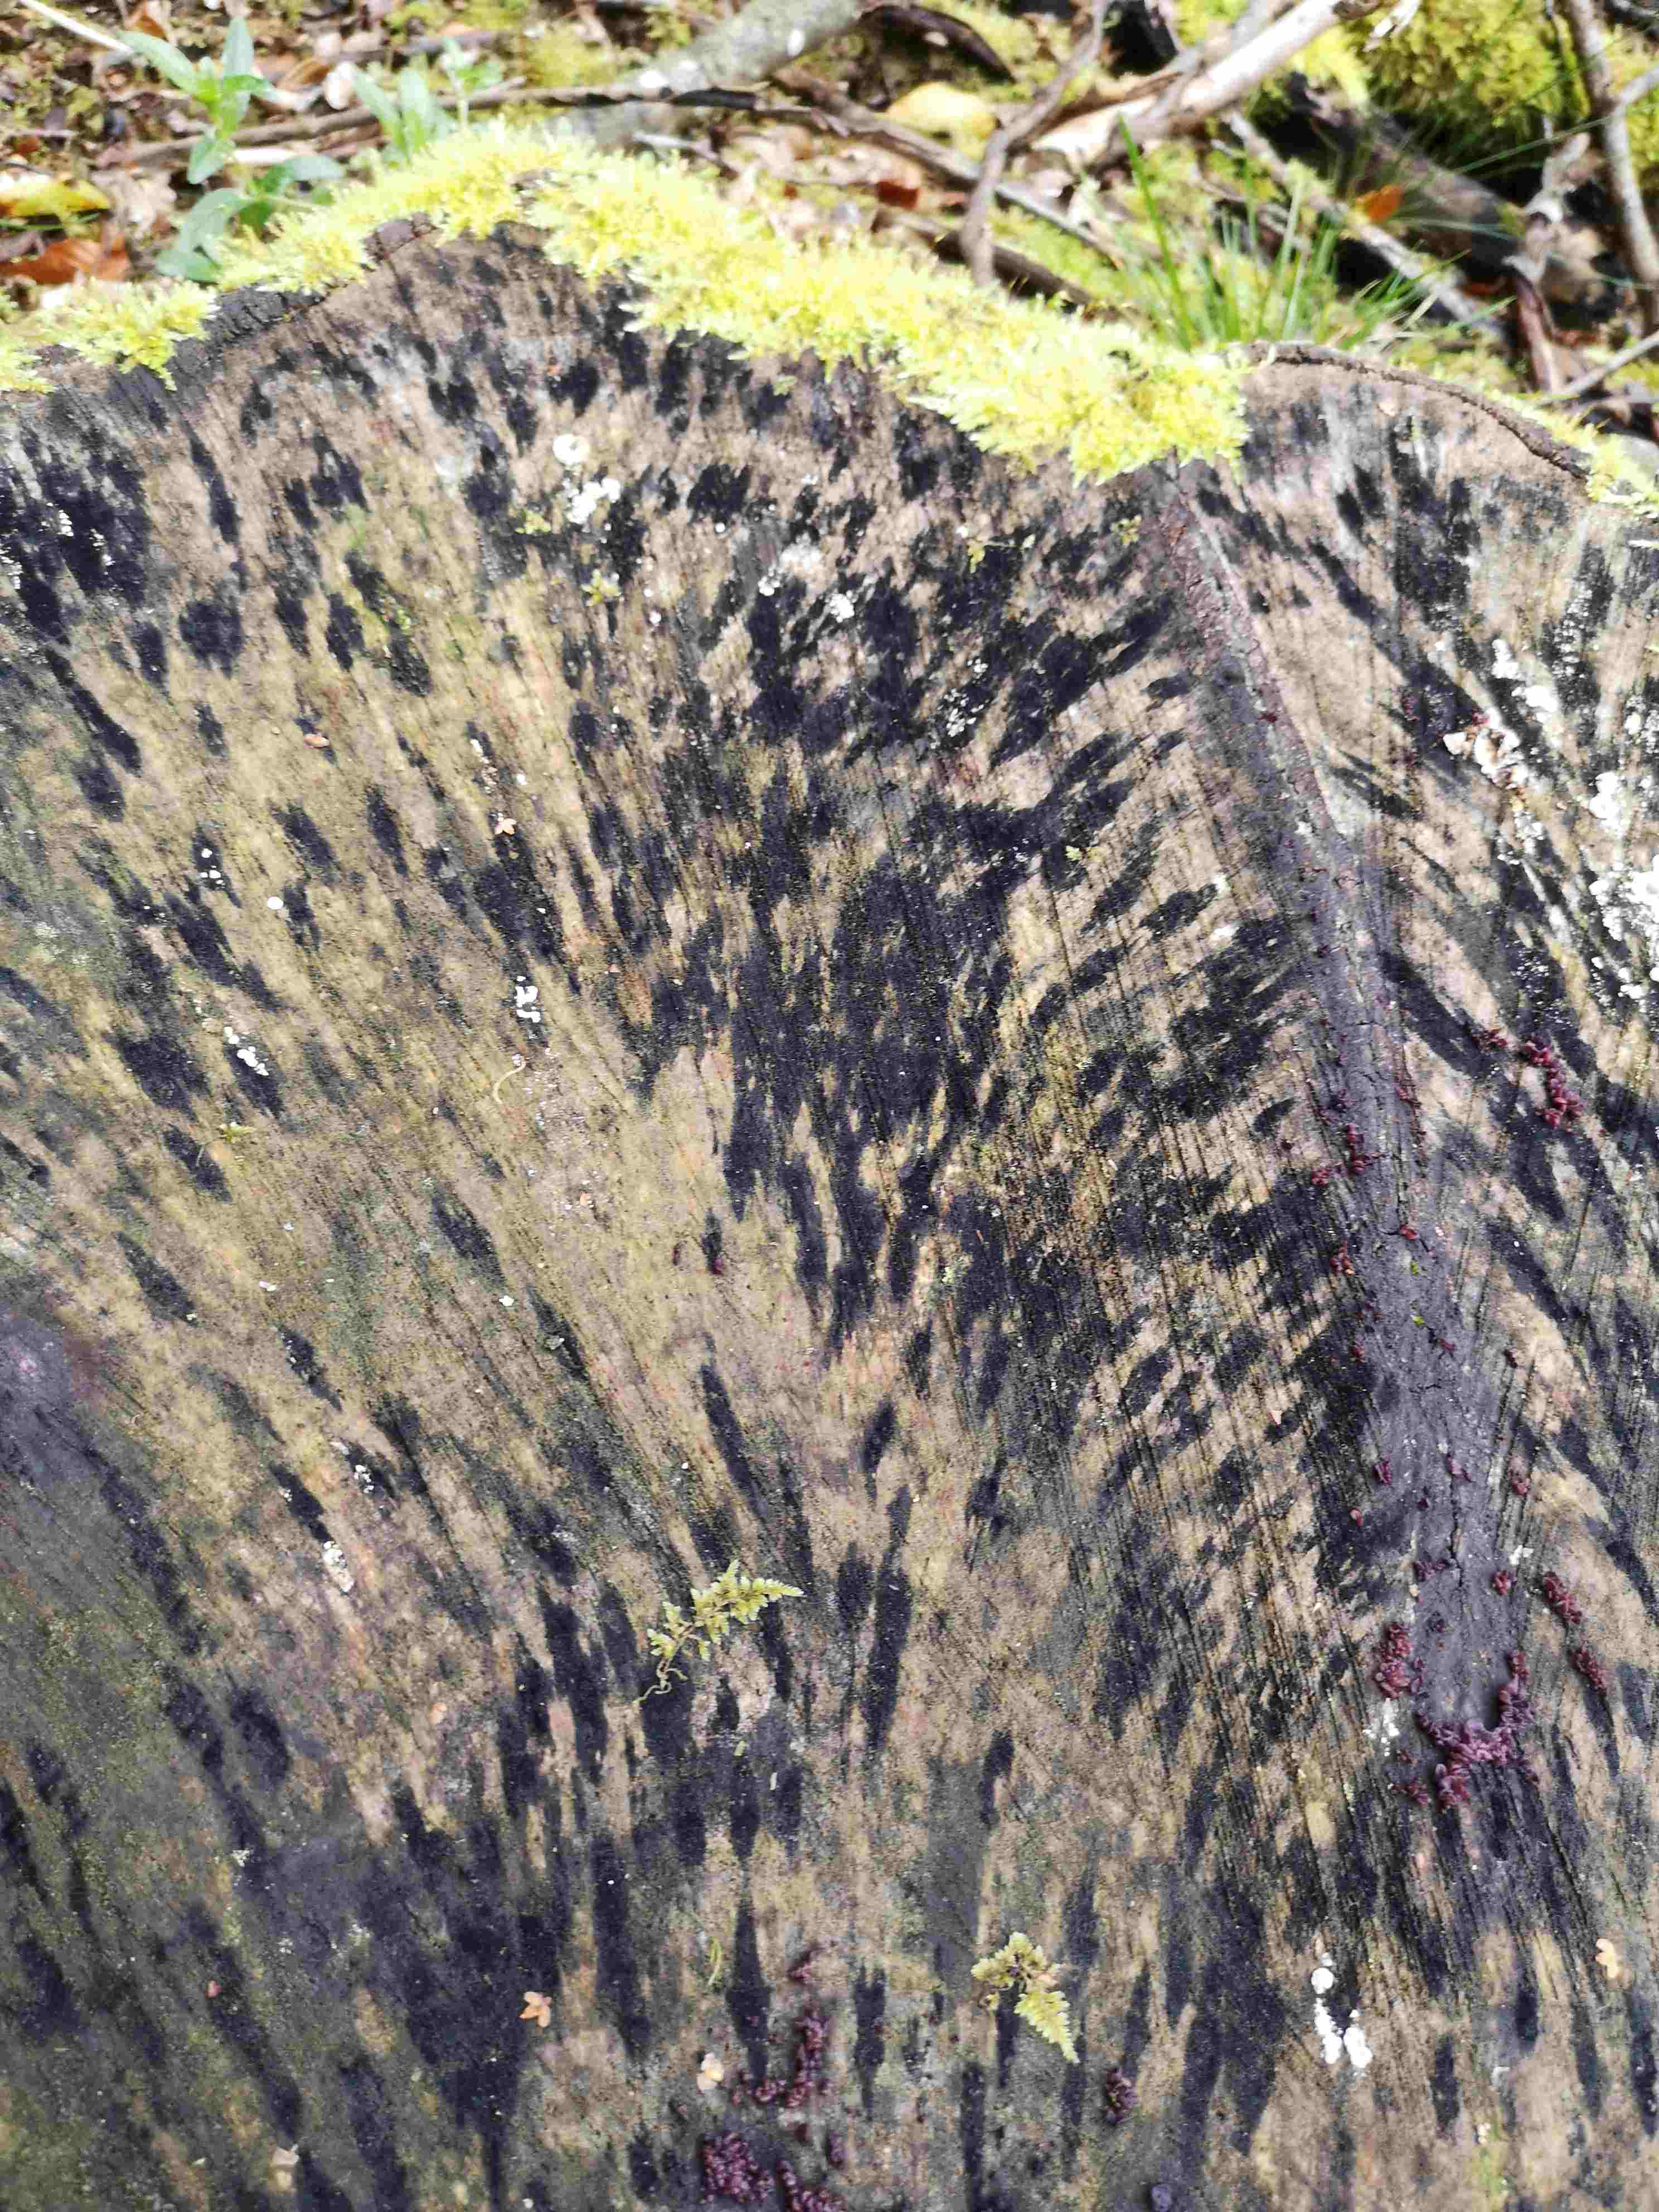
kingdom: Fungi
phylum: Ascomycota
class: Leotiomycetes
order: Helotiales
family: Helotiaceae
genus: Bispora
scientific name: Bispora pallescens
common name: måtte-snitskive
